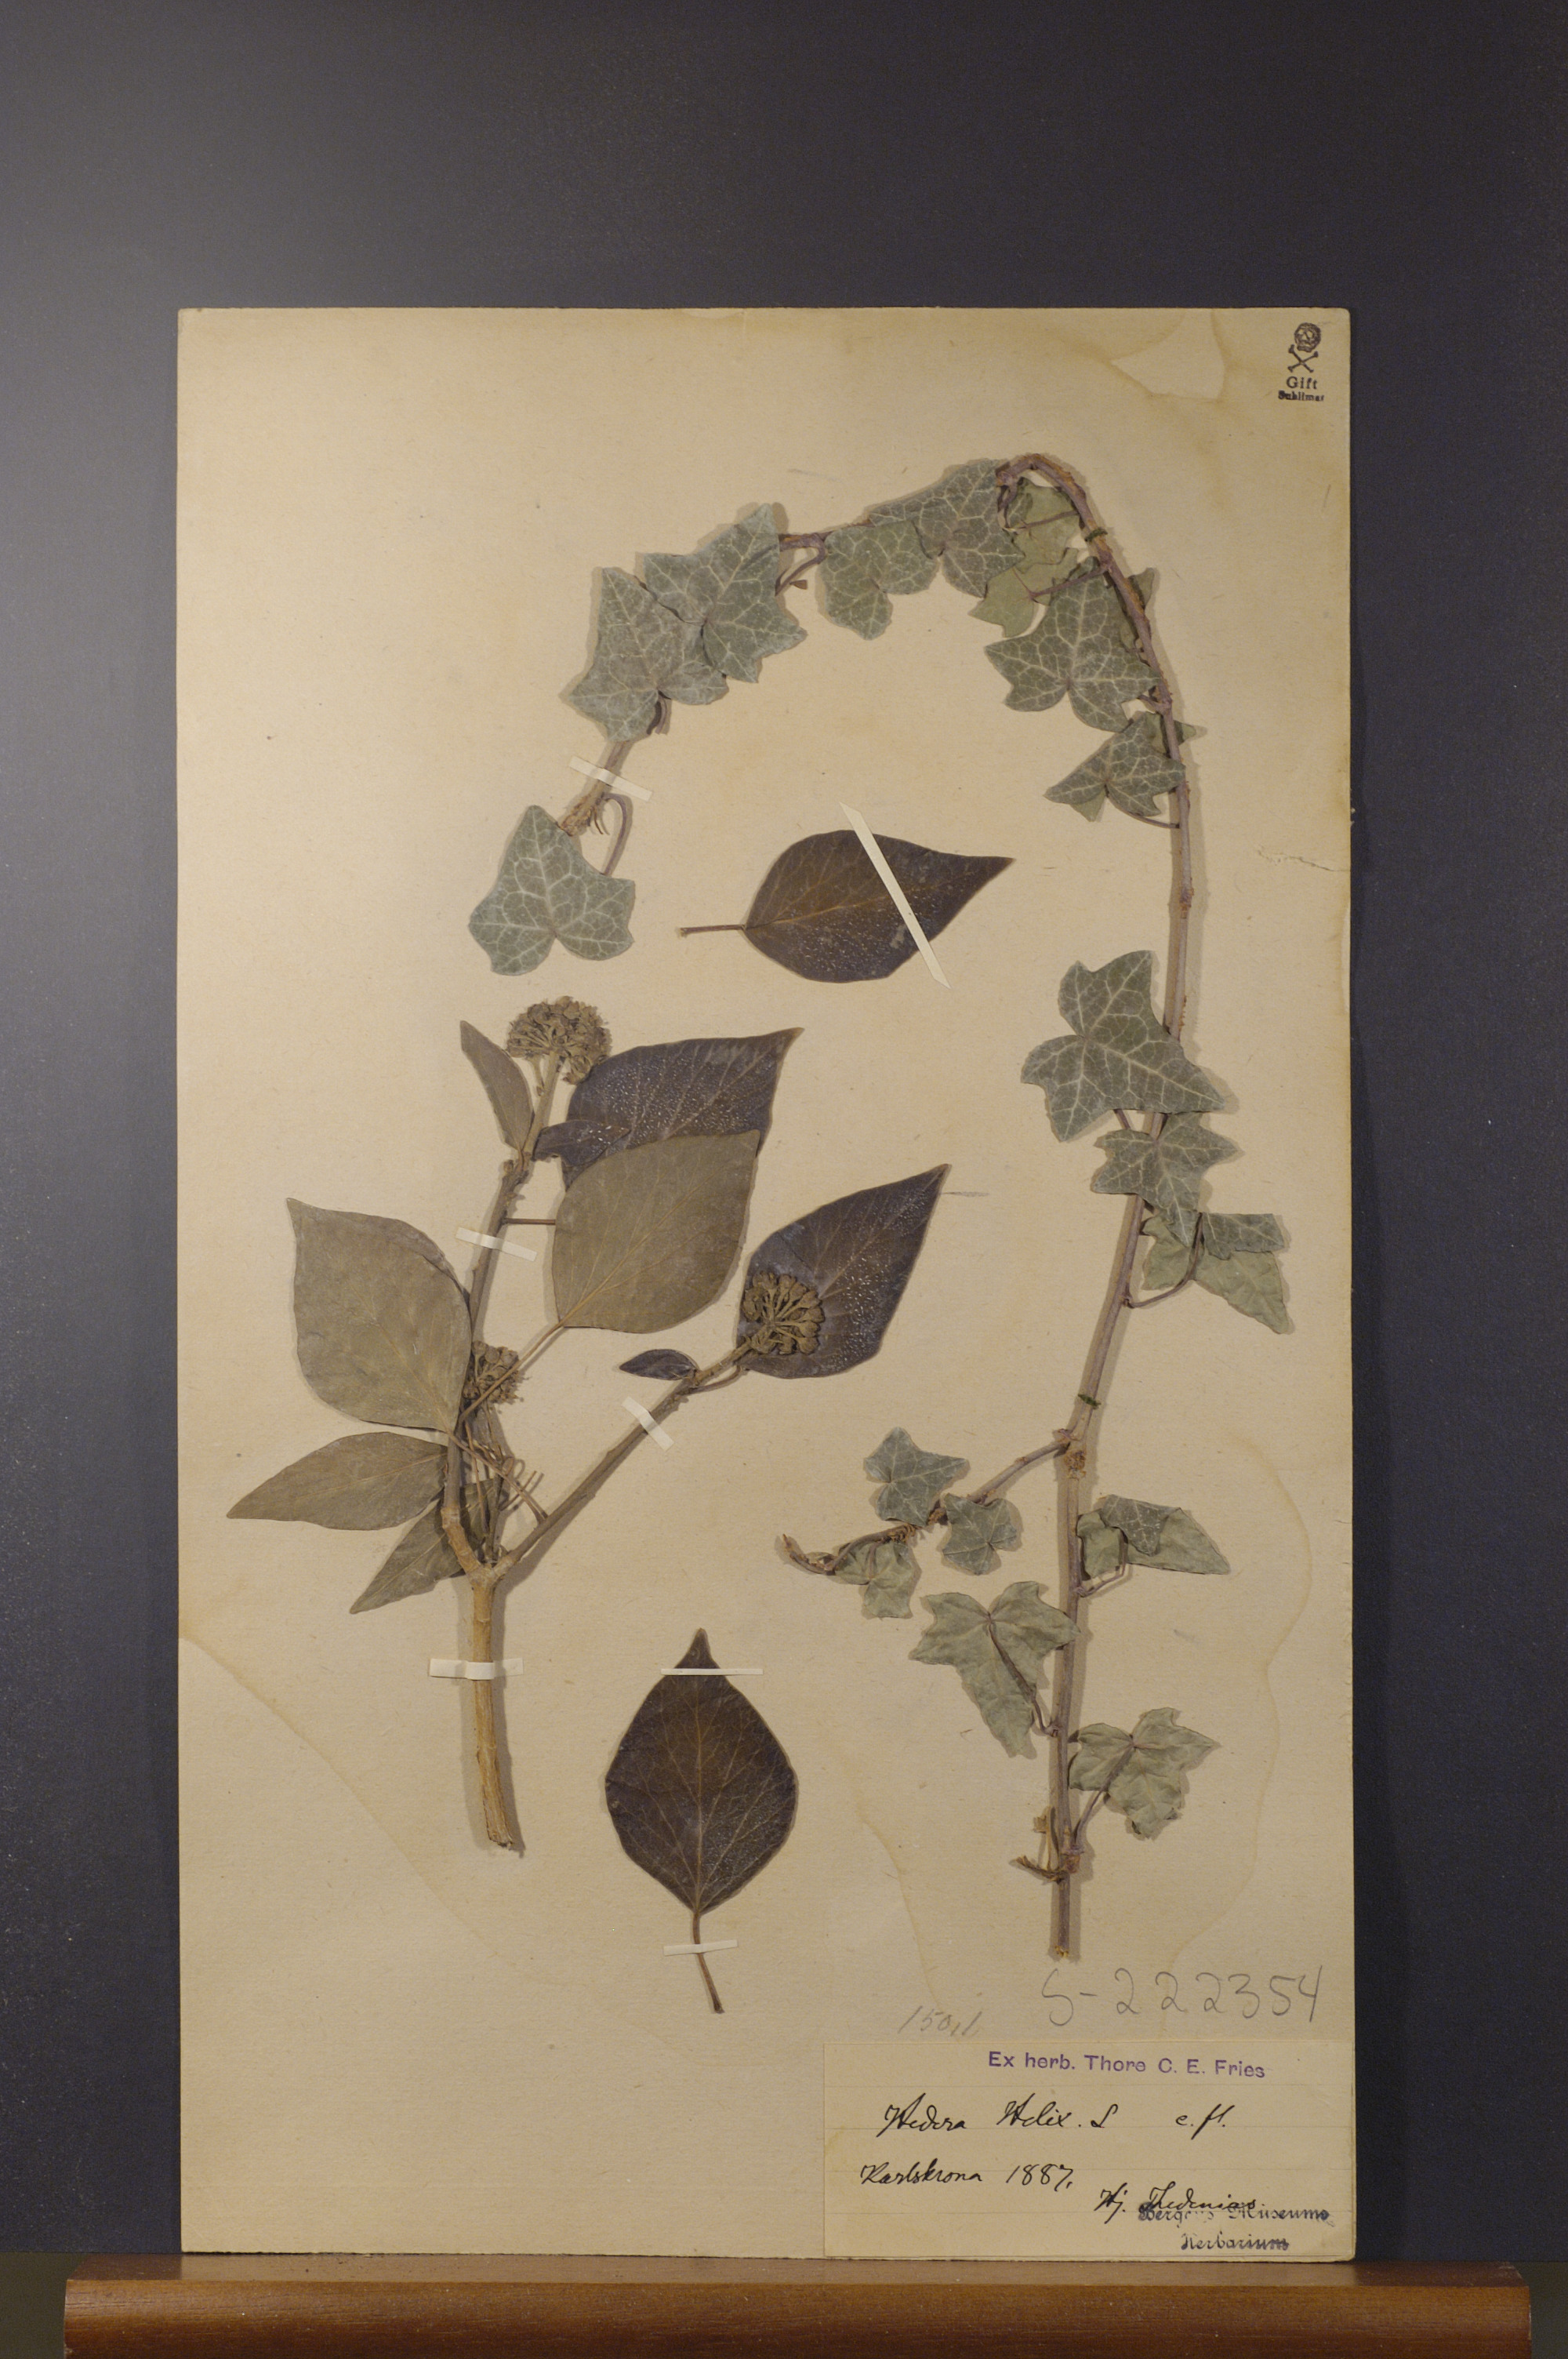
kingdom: Plantae
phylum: Tracheophyta
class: Magnoliopsida
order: Apiales
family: Araliaceae
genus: Hedera
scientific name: Hedera helix
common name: Ivy
